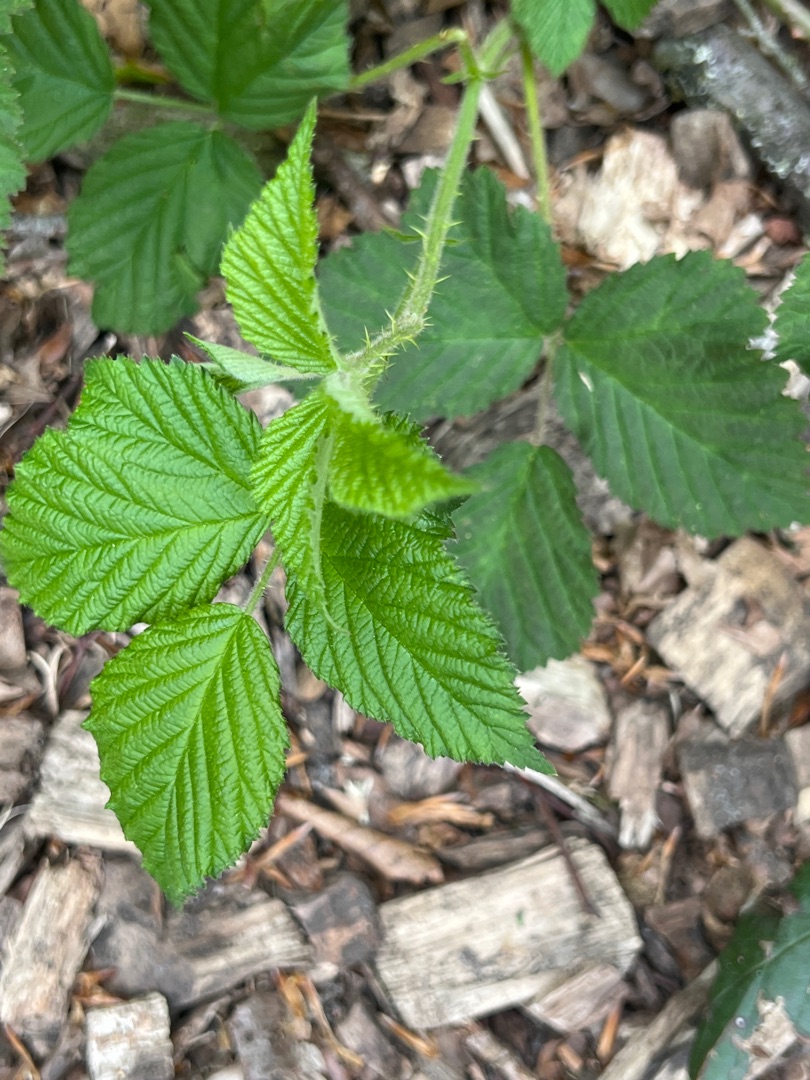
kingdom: Plantae
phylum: Tracheophyta
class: Magnoliopsida
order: Rosales
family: Rosaceae
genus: Rubus
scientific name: Rubus idaeus
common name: Hindbær
